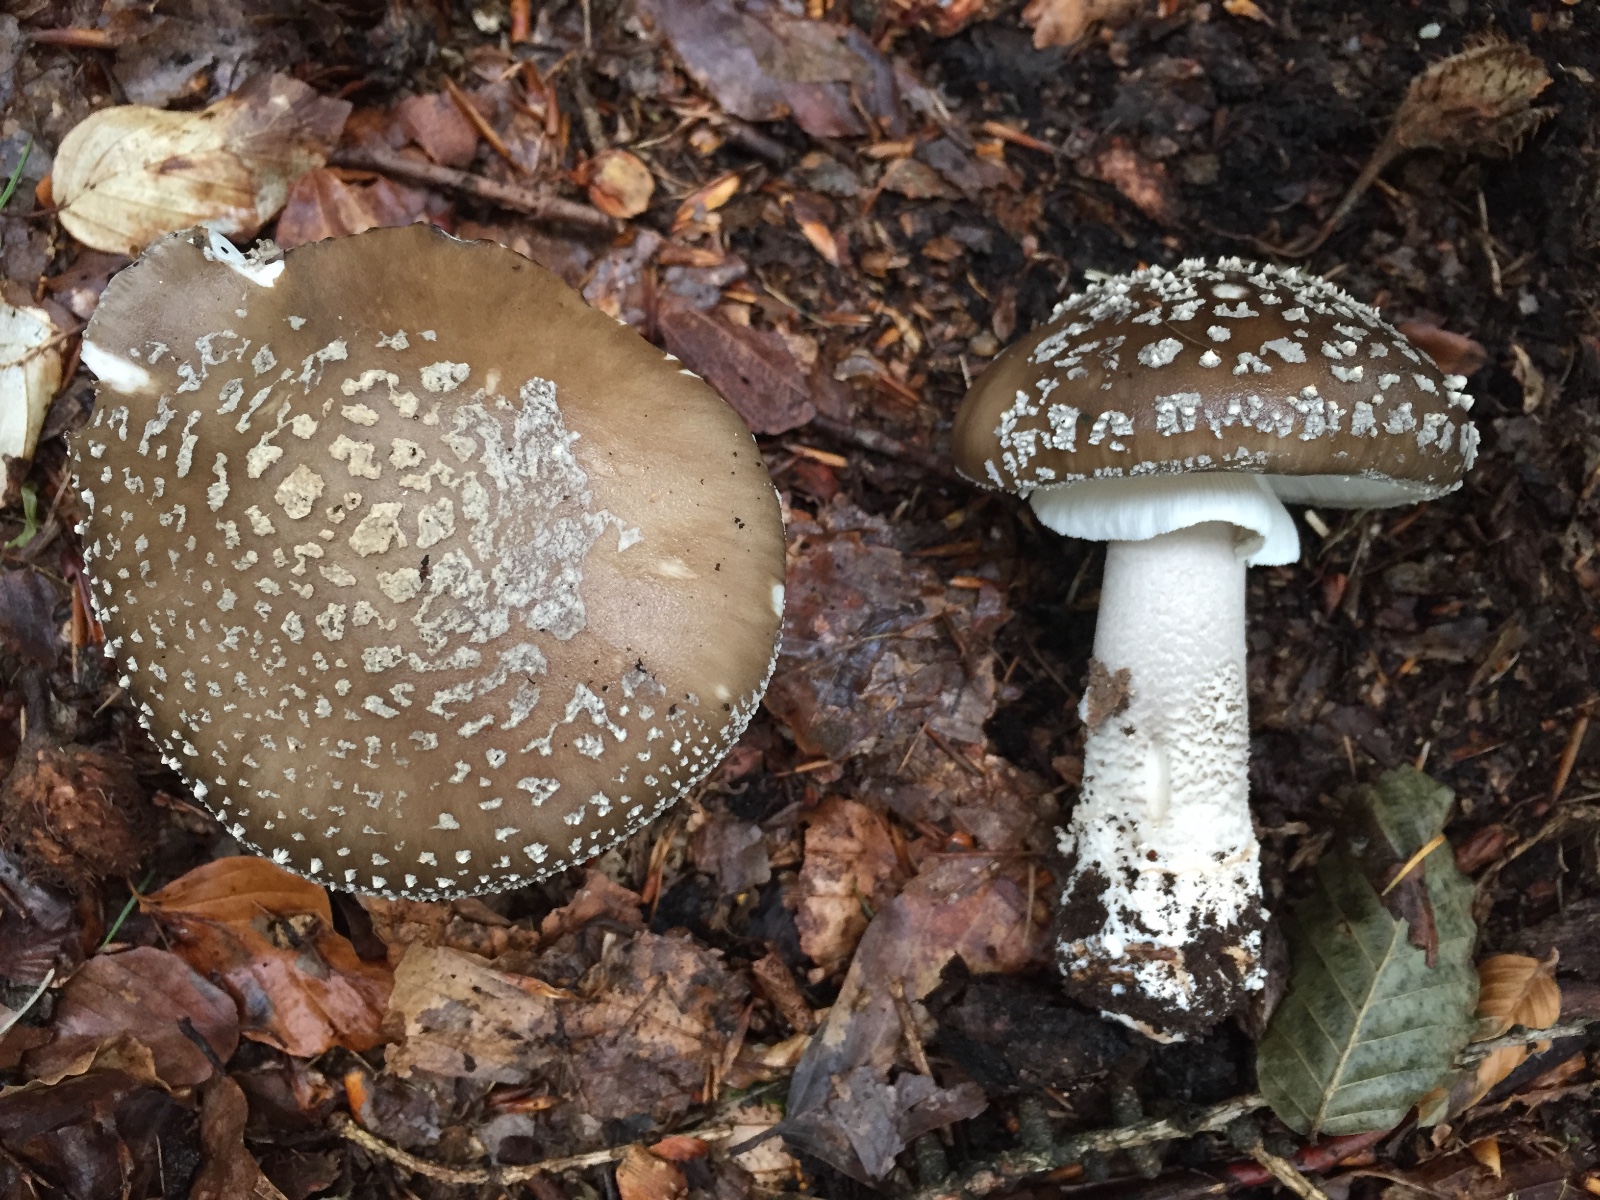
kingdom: Fungi
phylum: Basidiomycota
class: Agaricomycetes
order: Agaricales
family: Amanitaceae
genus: Amanita
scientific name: Amanita
